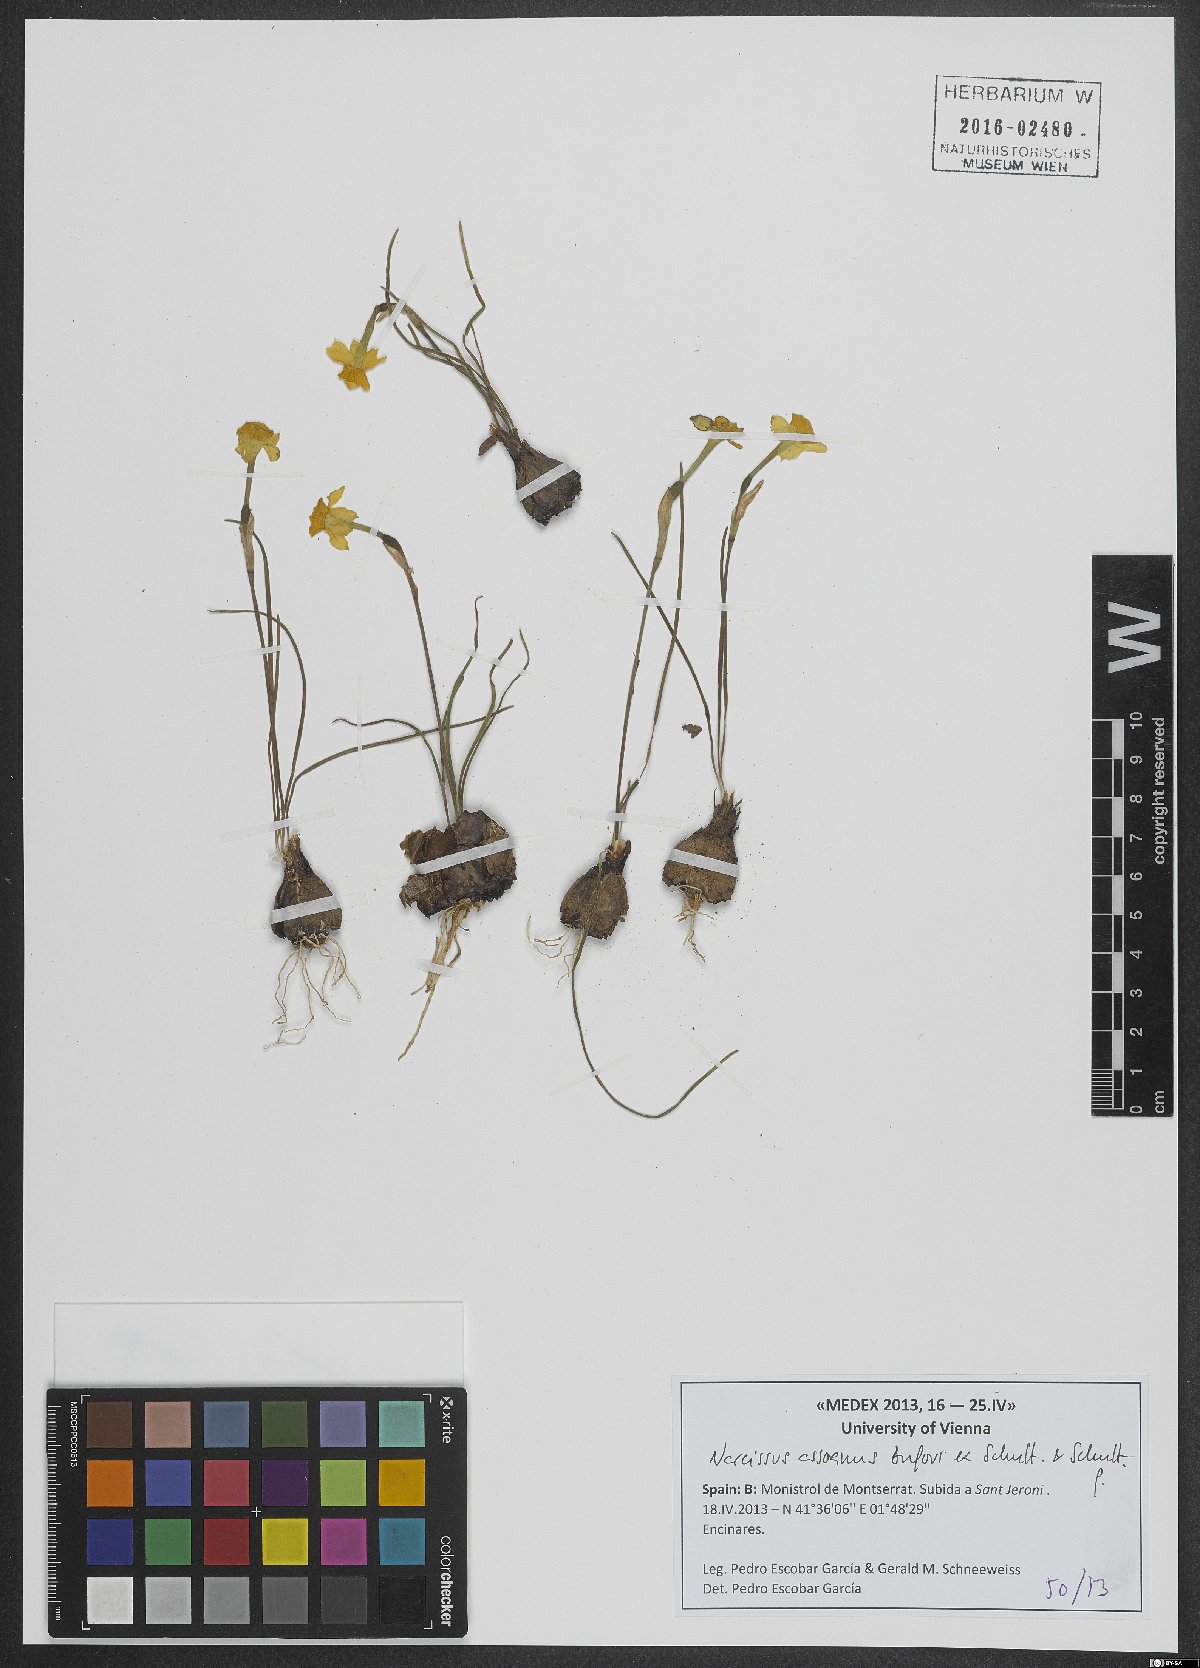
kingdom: Plantae
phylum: Tracheophyta
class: Liliopsida
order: Asparagales
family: Amaryllidaceae
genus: Narcissus
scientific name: Narcissus assoanus
